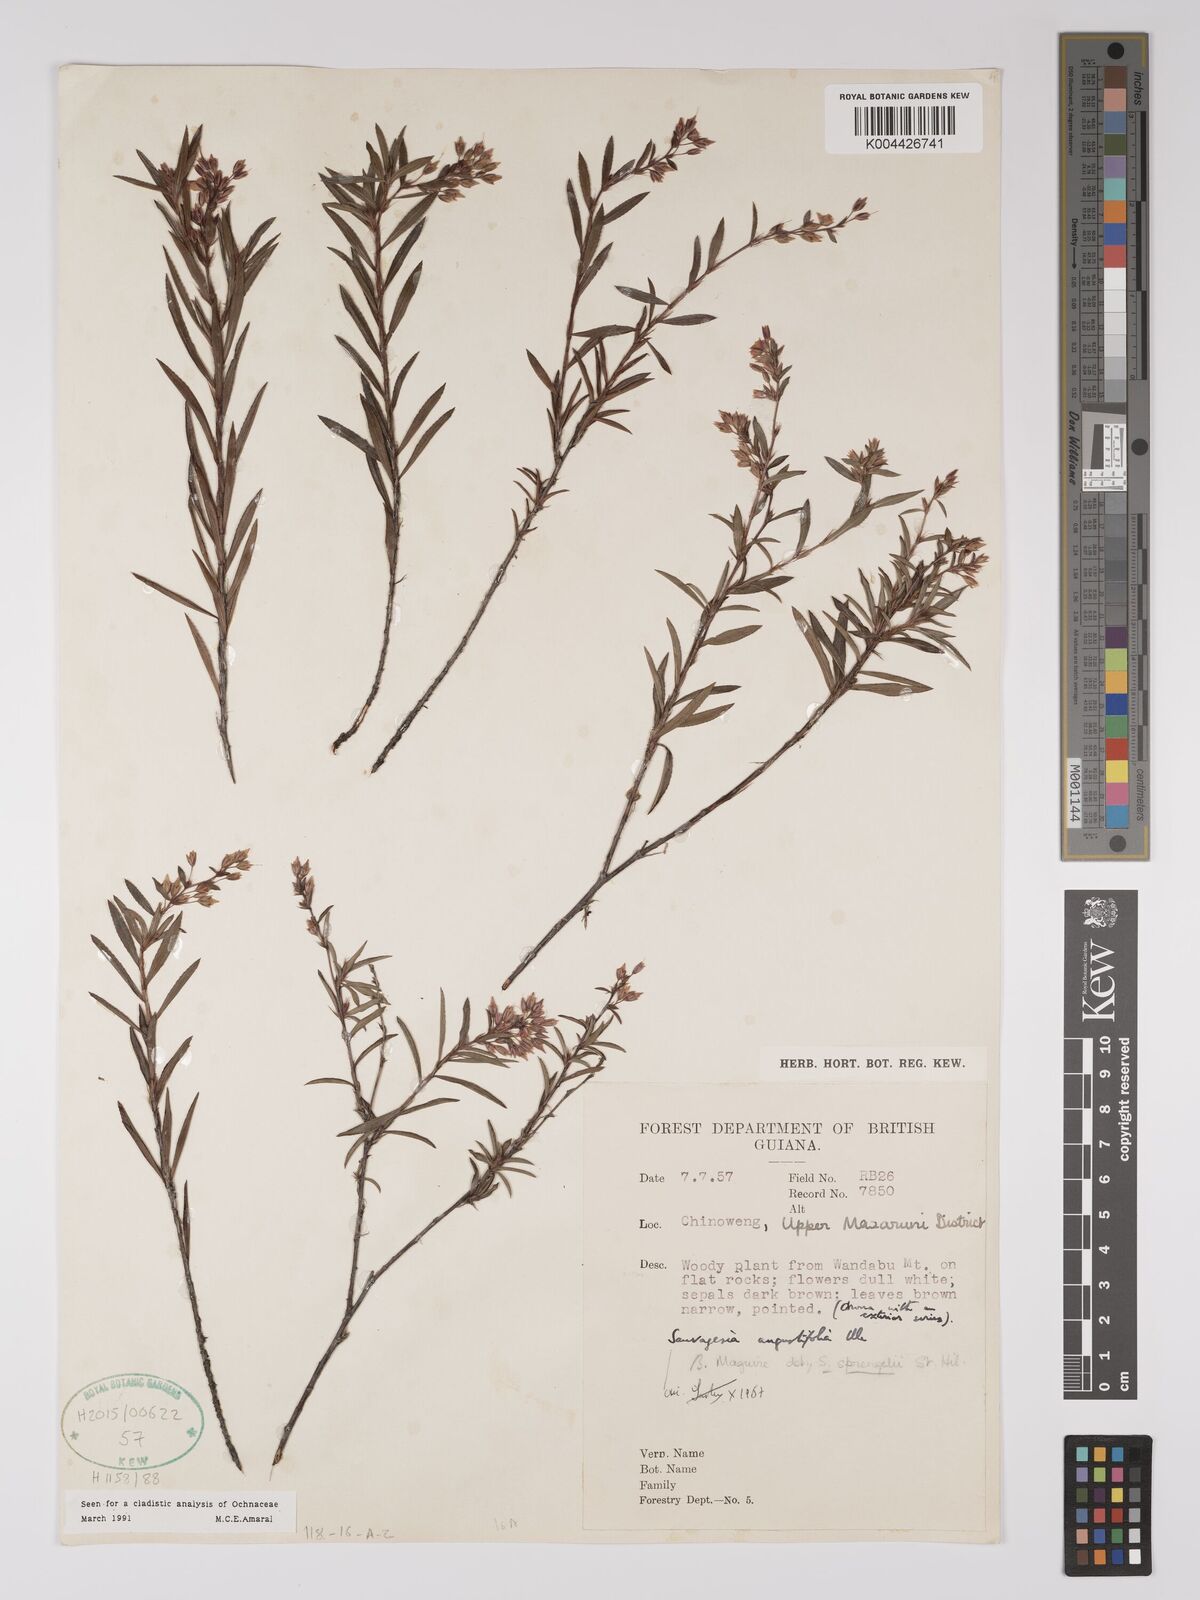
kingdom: Plantae
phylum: Tracheophyta
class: Magnoliopsida
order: Malpighiales
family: Ochnaceae
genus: Sauvagesia
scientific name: Sauvagesia angustifolia
